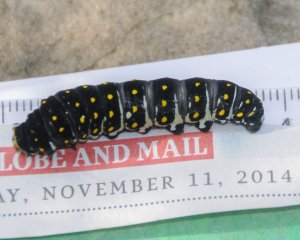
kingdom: Animalia
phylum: Arthropoda
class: Insecta
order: Lepidoptera
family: Papilionidae
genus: Papilio
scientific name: Papilio polyxenes
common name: Black Swallowtail
